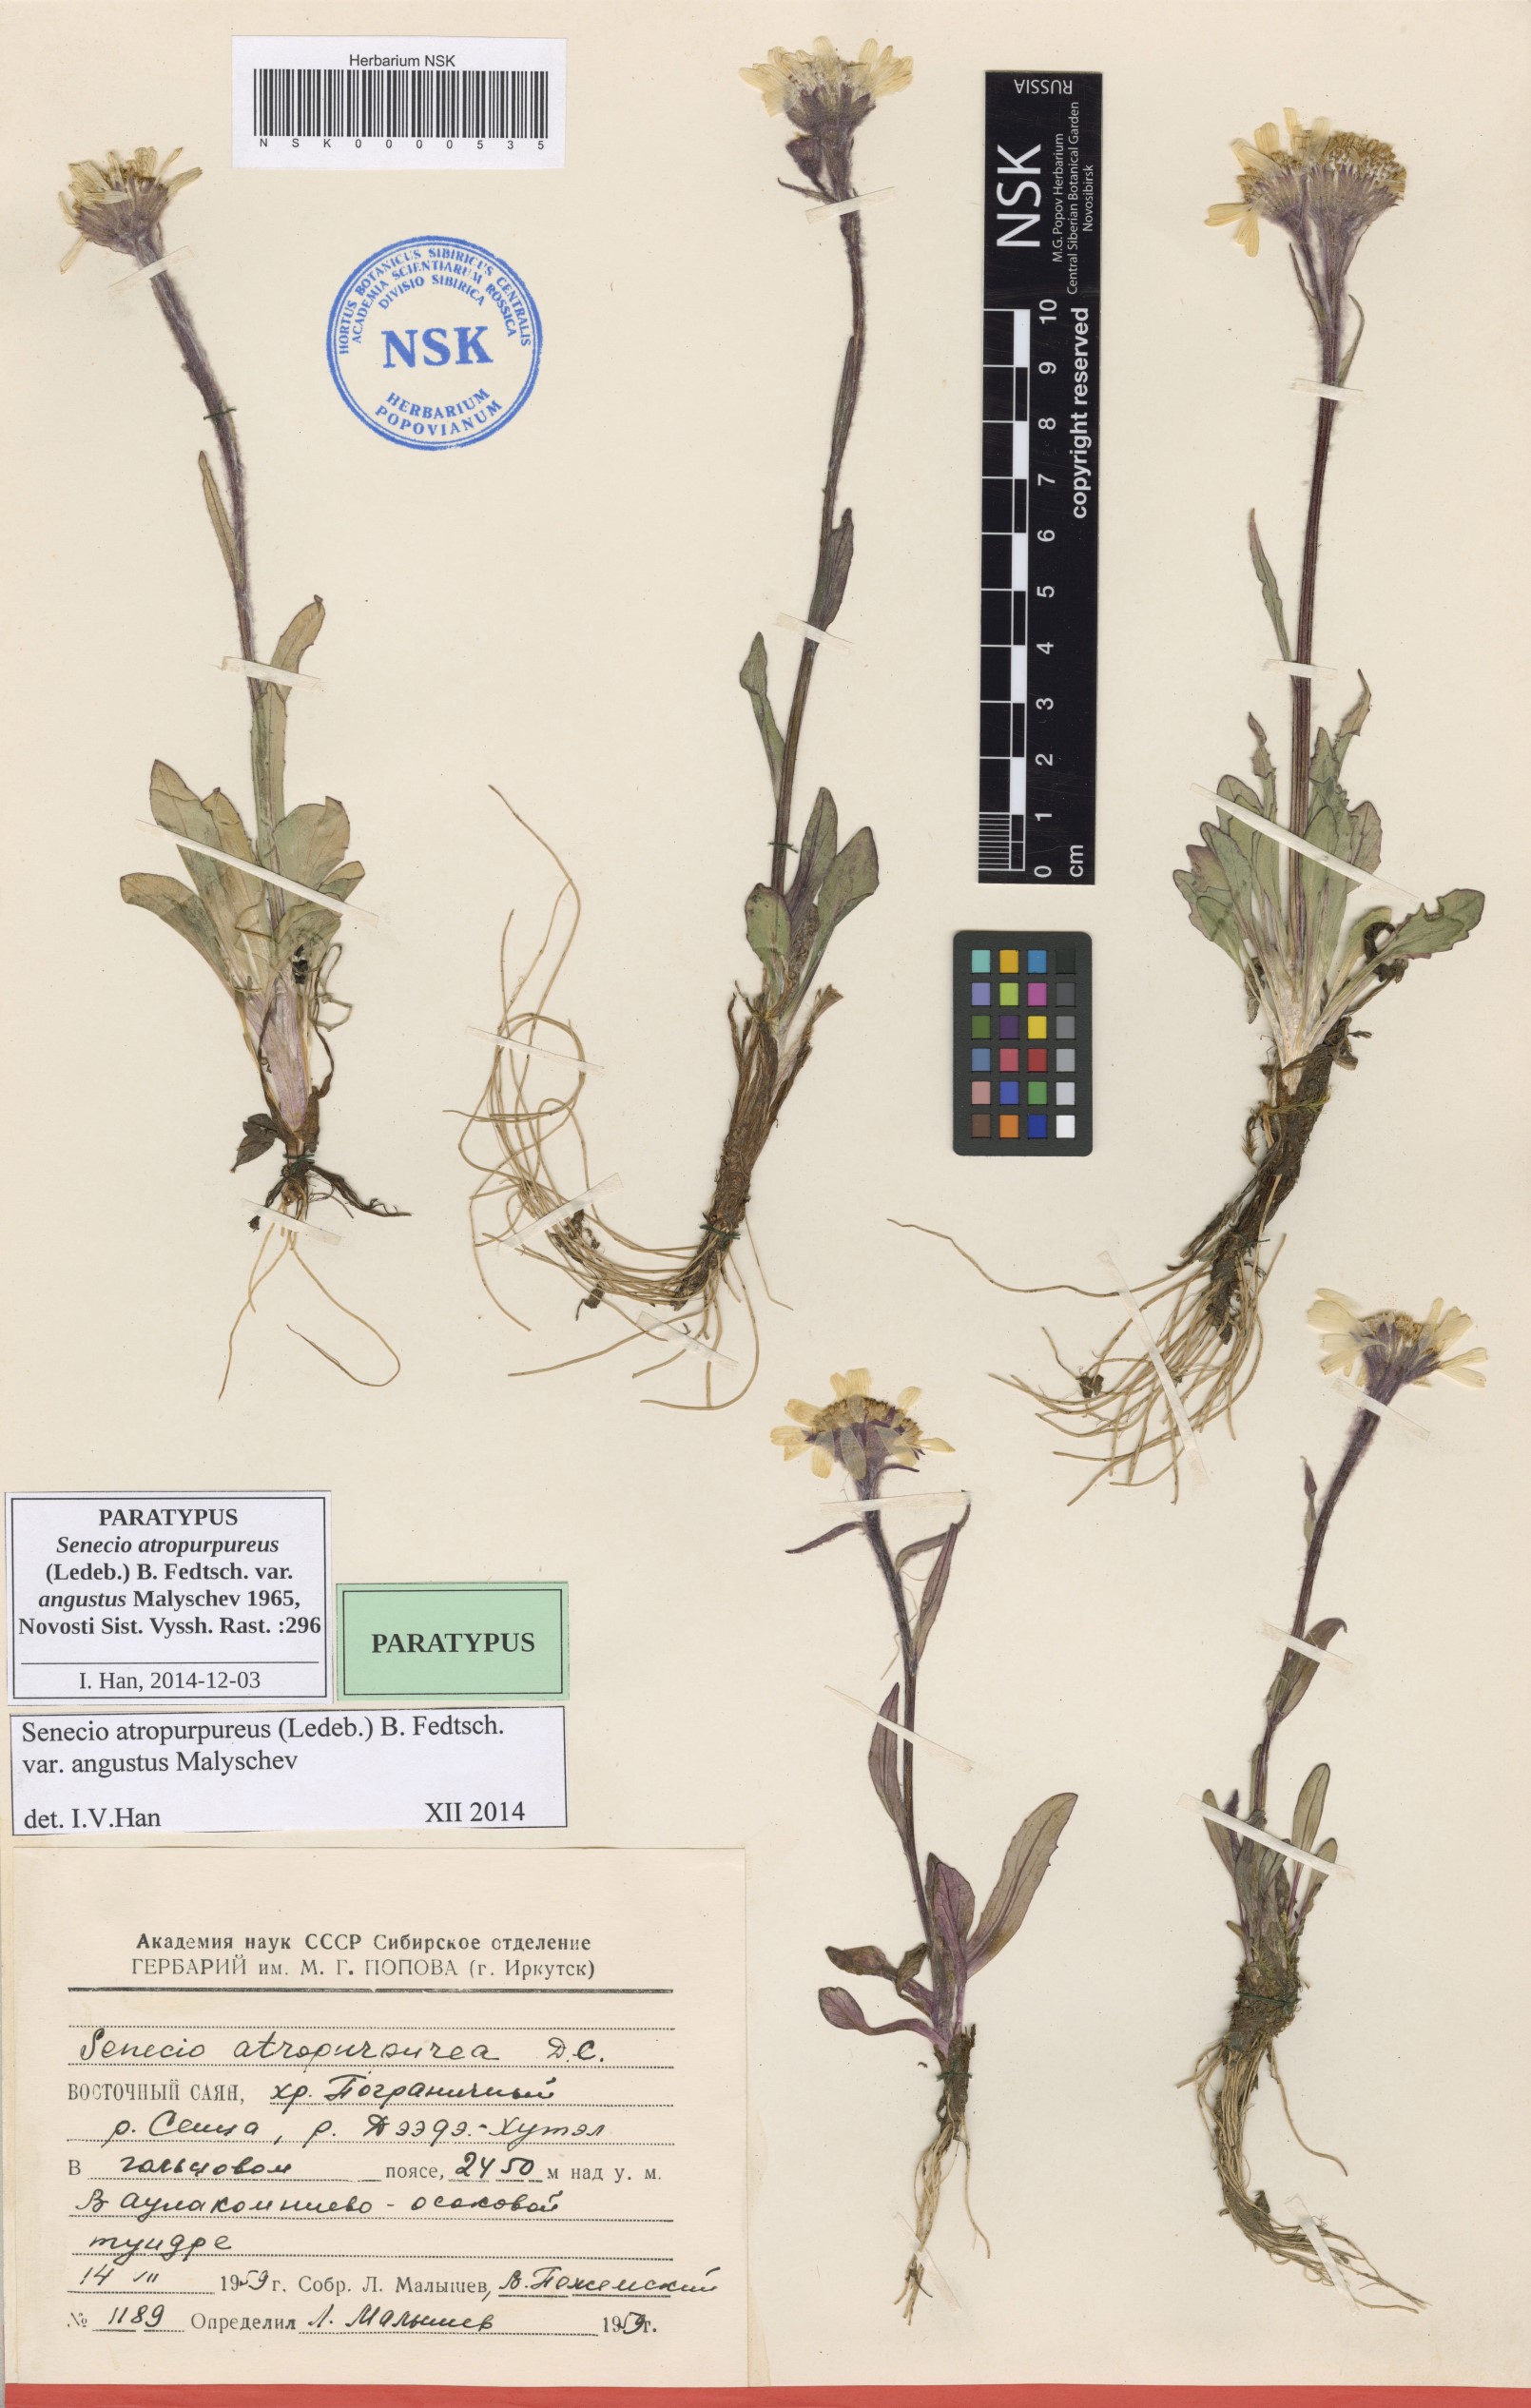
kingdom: Plantae
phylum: Tracheophyta
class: Magnoliopsida
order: Asterales
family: Asteraceae
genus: Tephroseris
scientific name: Tephroseris integrifolia
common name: Field fleawort
